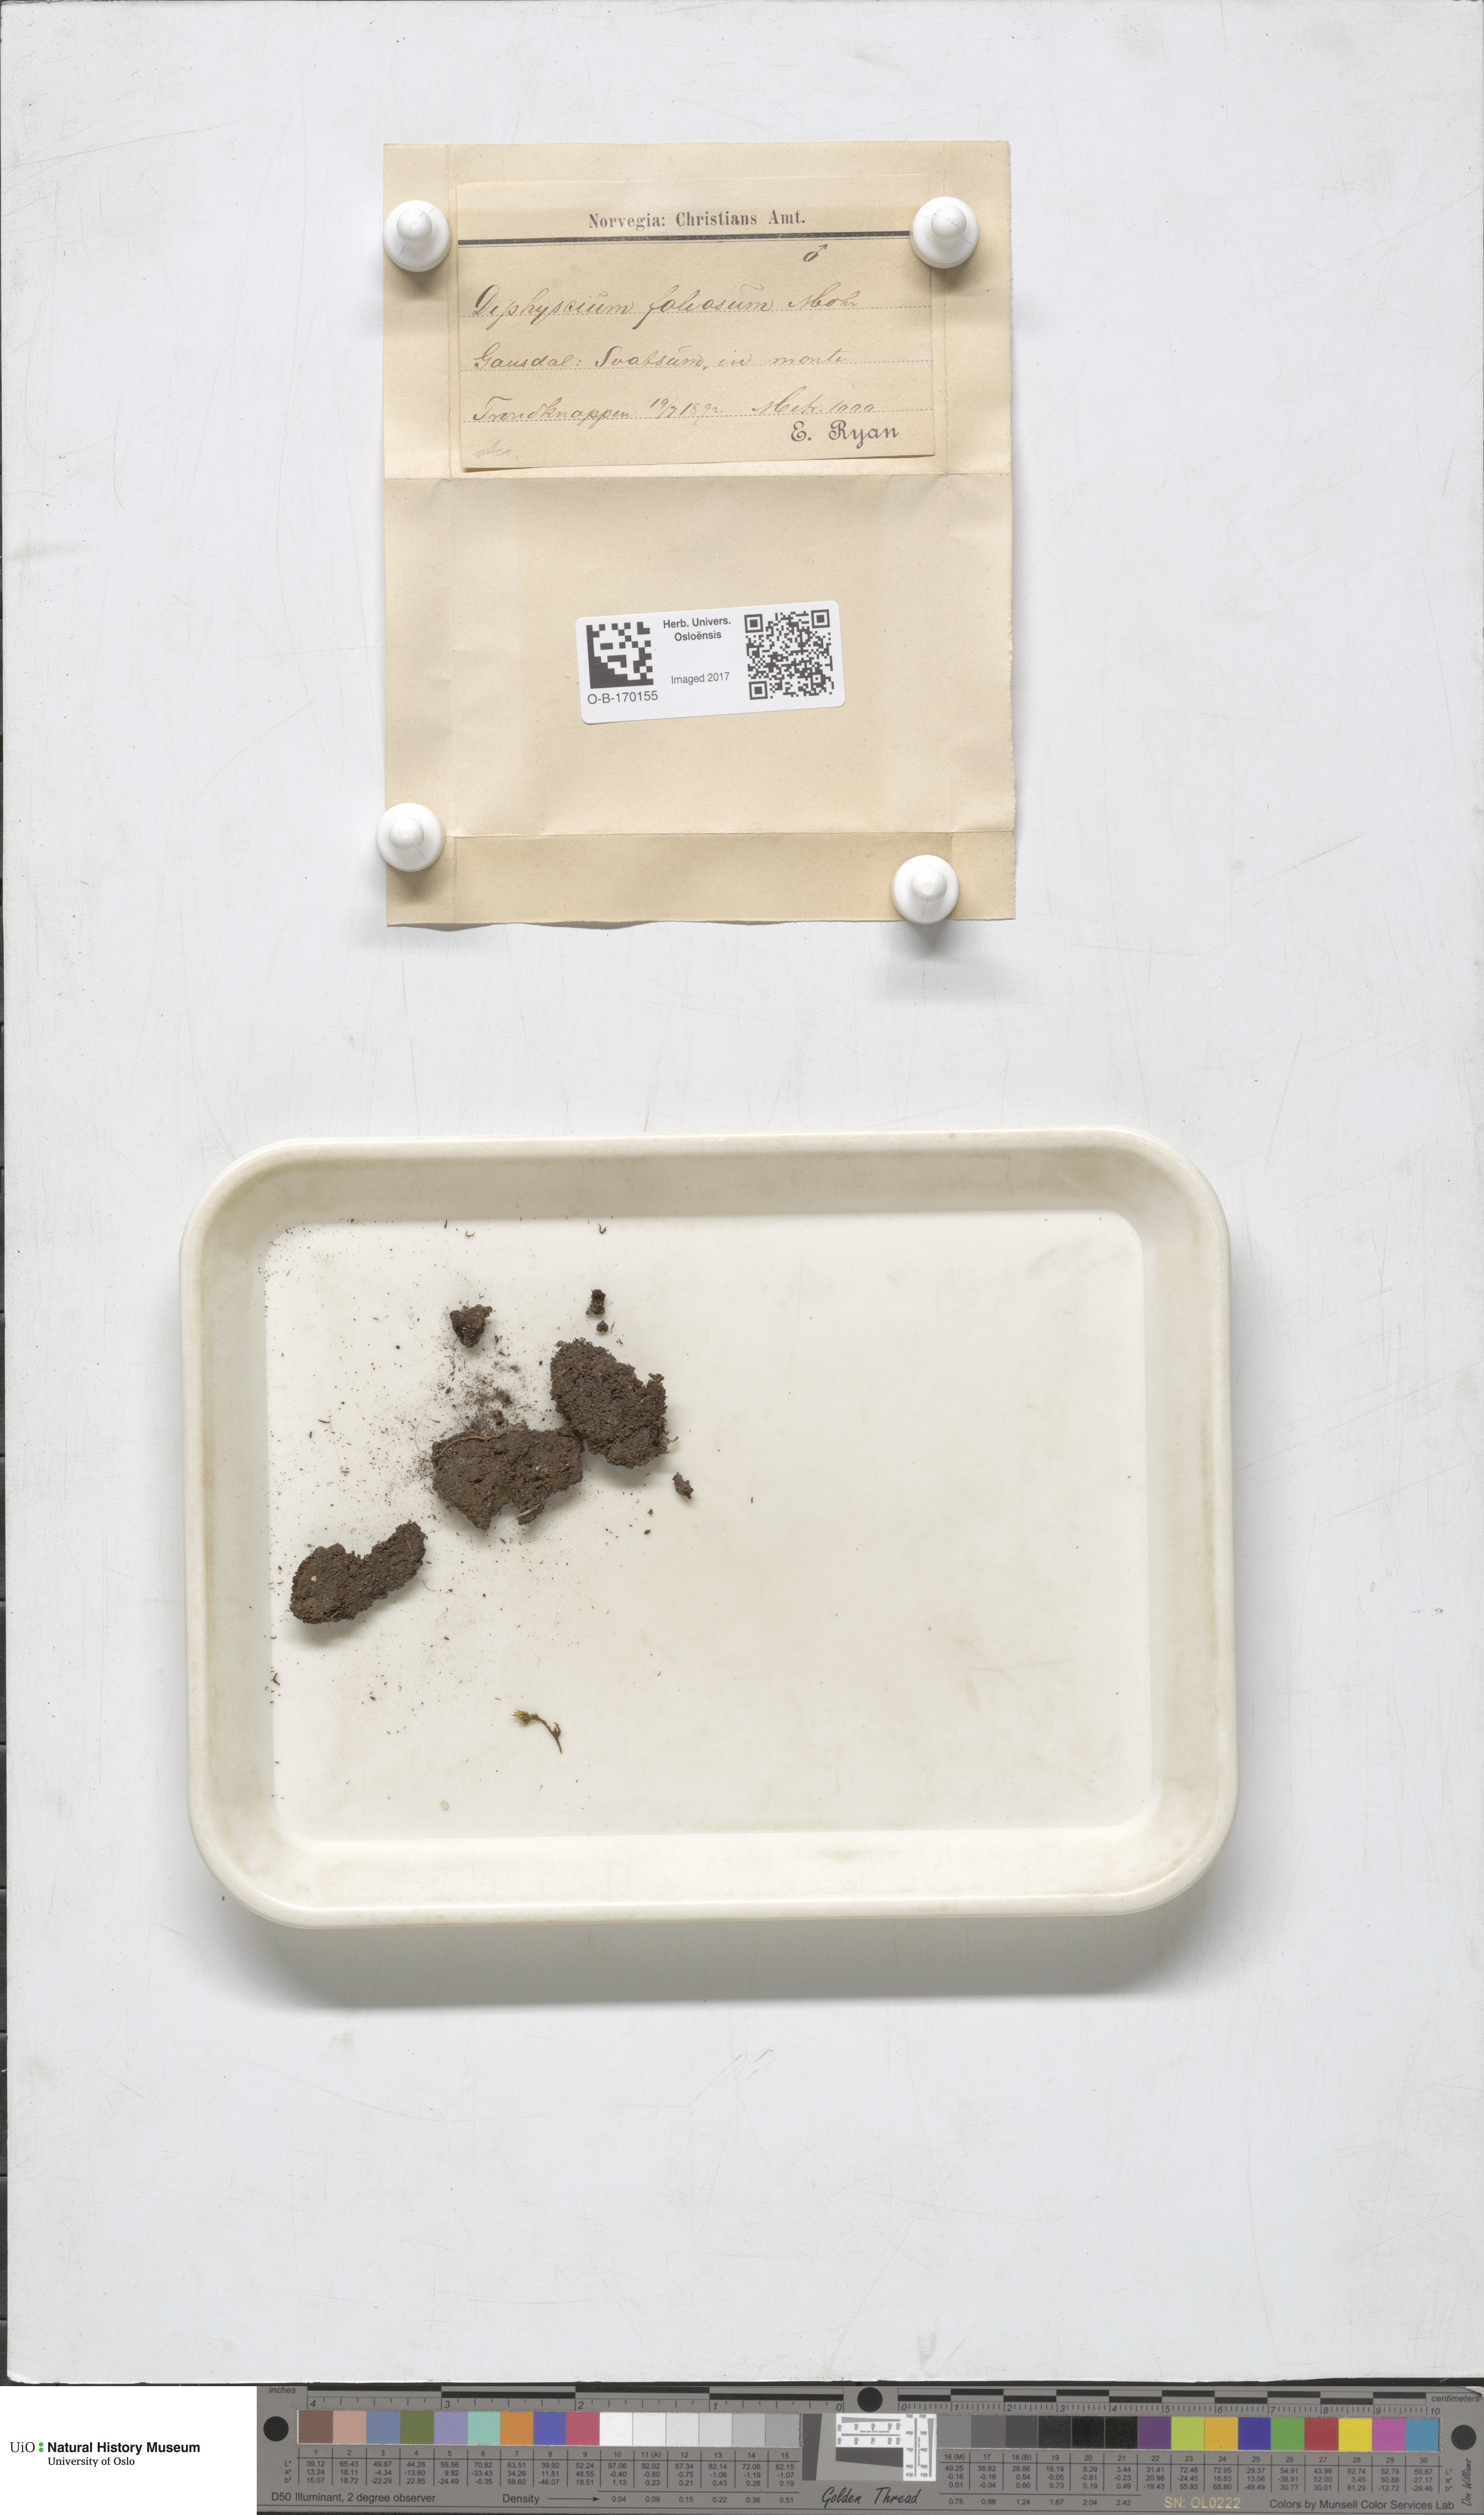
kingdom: Plantae
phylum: Bryophyta
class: Bryopsida
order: Diphysciales
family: Diphysciaceae
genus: Diphyscium
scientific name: Diphyscium foliosum
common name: Nut moss
